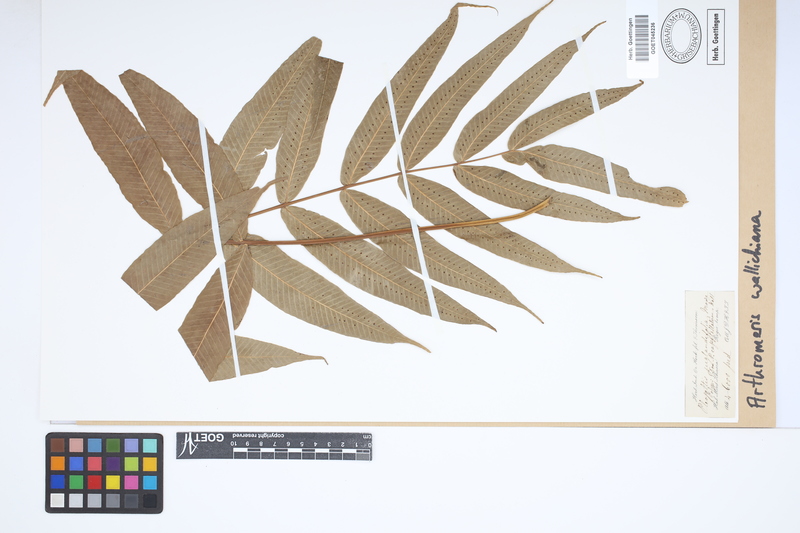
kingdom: Plantae
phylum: Tracheophyta
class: Polypodiopsida
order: Polypodiales
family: Polypodiaceae
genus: Selliguea
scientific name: Selliguea capitellata
